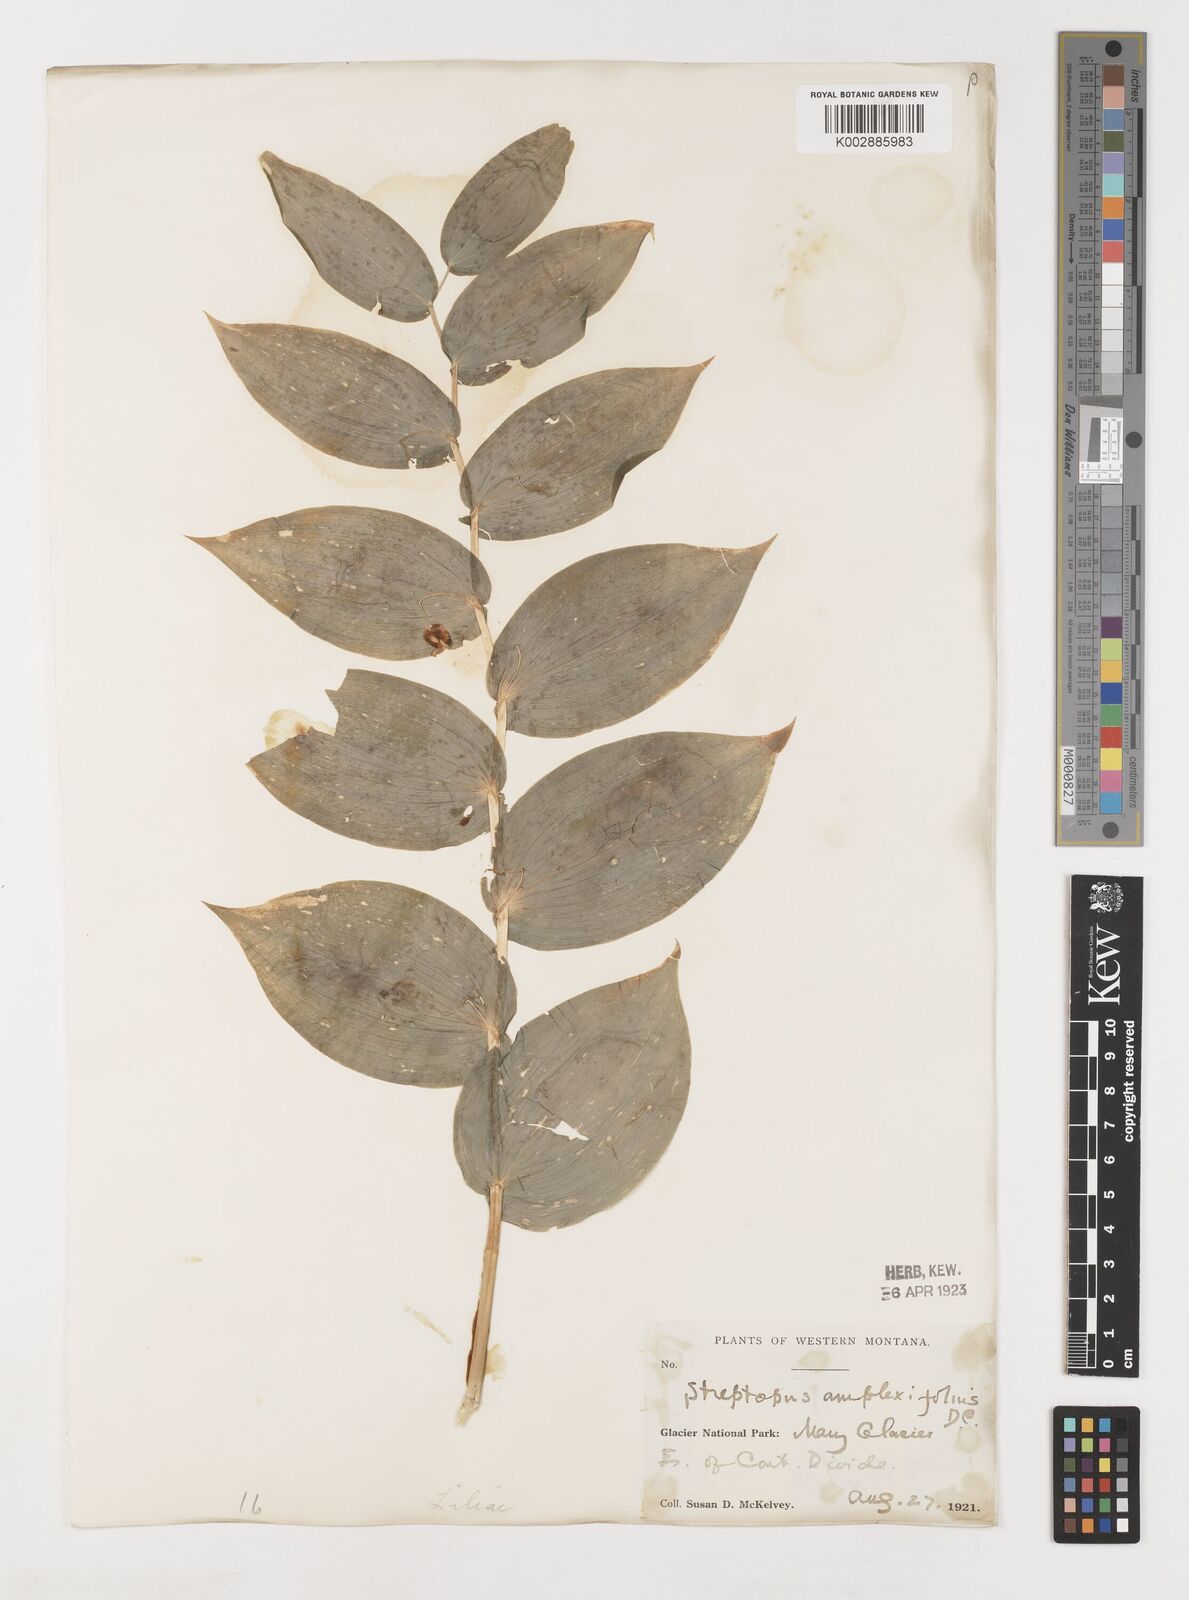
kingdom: Plantae
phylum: Tracheophyta
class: Liliopsida
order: Liliales
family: Liliaceae
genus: Streptopus
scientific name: Streptopus amplexifolius
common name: Clasp twisted stalk
